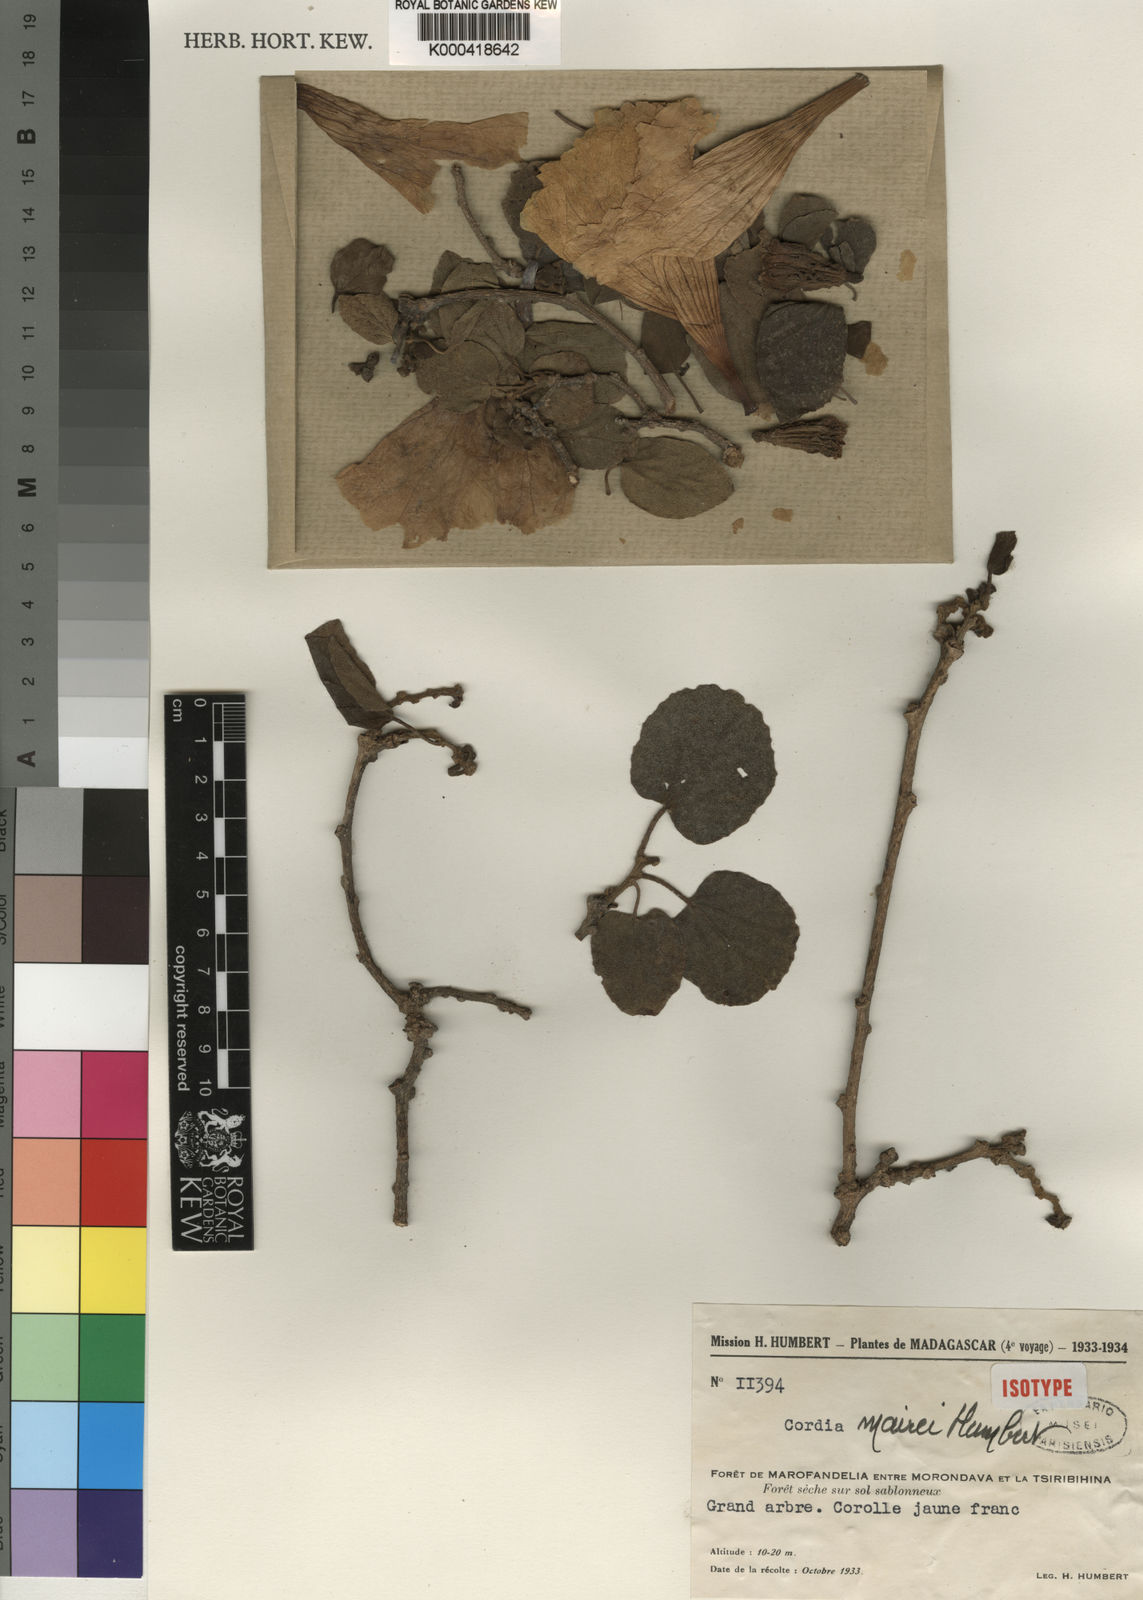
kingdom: Plantae
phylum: Tracheophyta
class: Magnoliopsida
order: Boraginales
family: Cordiaceae
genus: Cordia
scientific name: Cordia mairei
